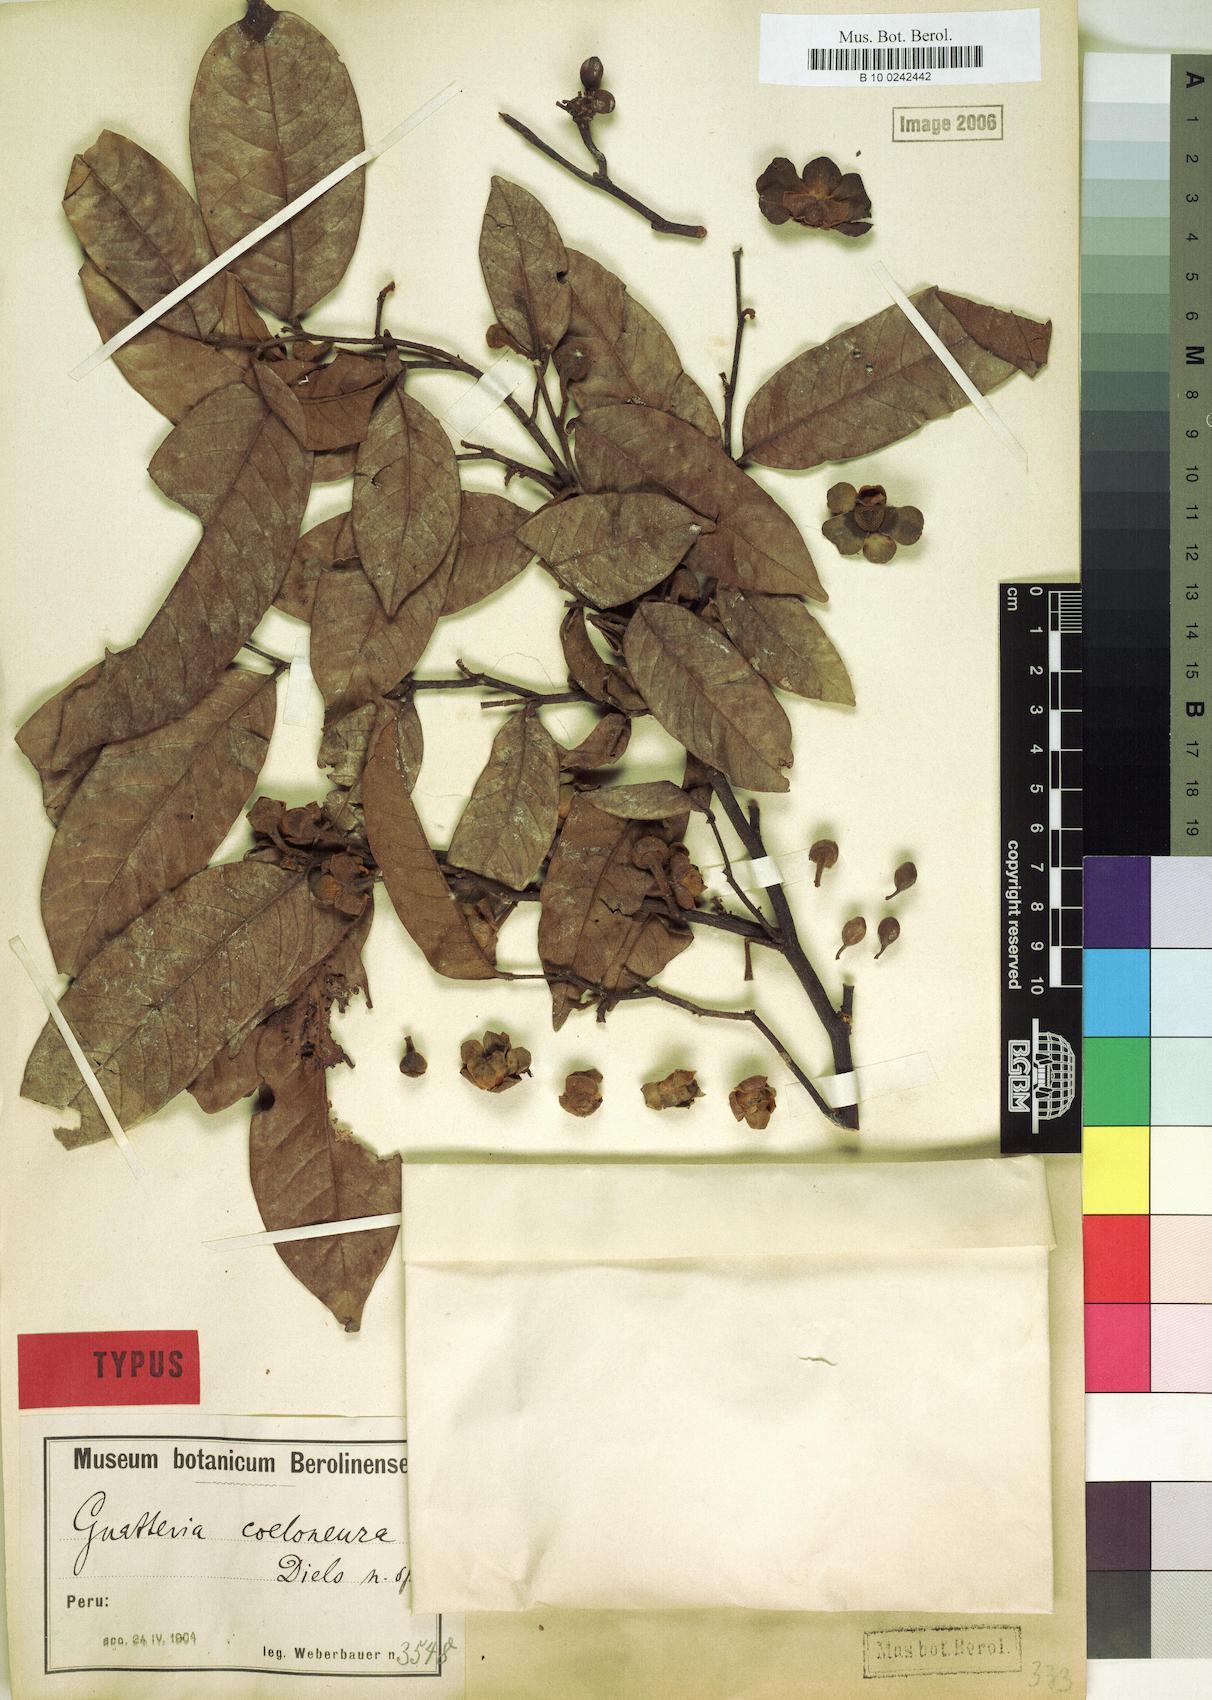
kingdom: Plantae
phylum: Tracheophyta
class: Magnoliopsida
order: Magnoliales
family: Annonaceae
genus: Guatteria
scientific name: Guatteria punctata
